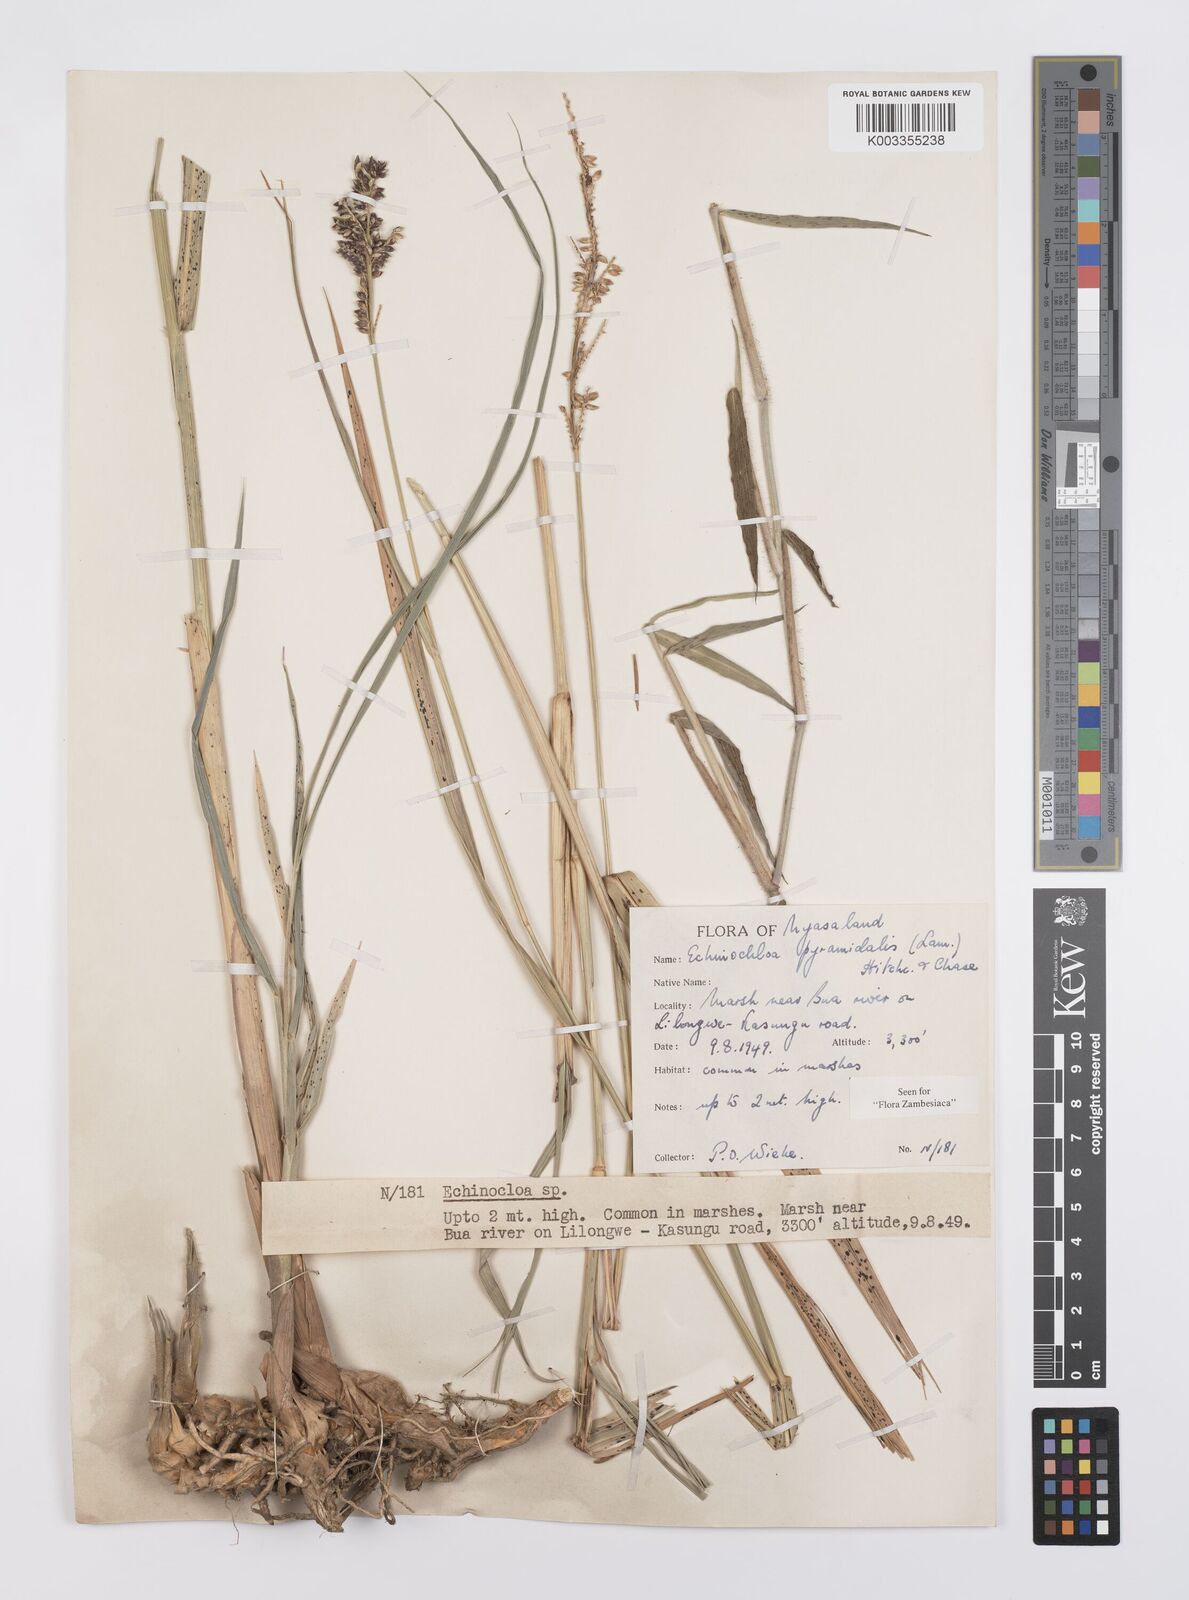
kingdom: Plantae
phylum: Tracheophyta
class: Liliopsida
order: Poales
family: Poaceae
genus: Echinochloa
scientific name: Echinochloa pyramidalis
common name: Antelope grass
